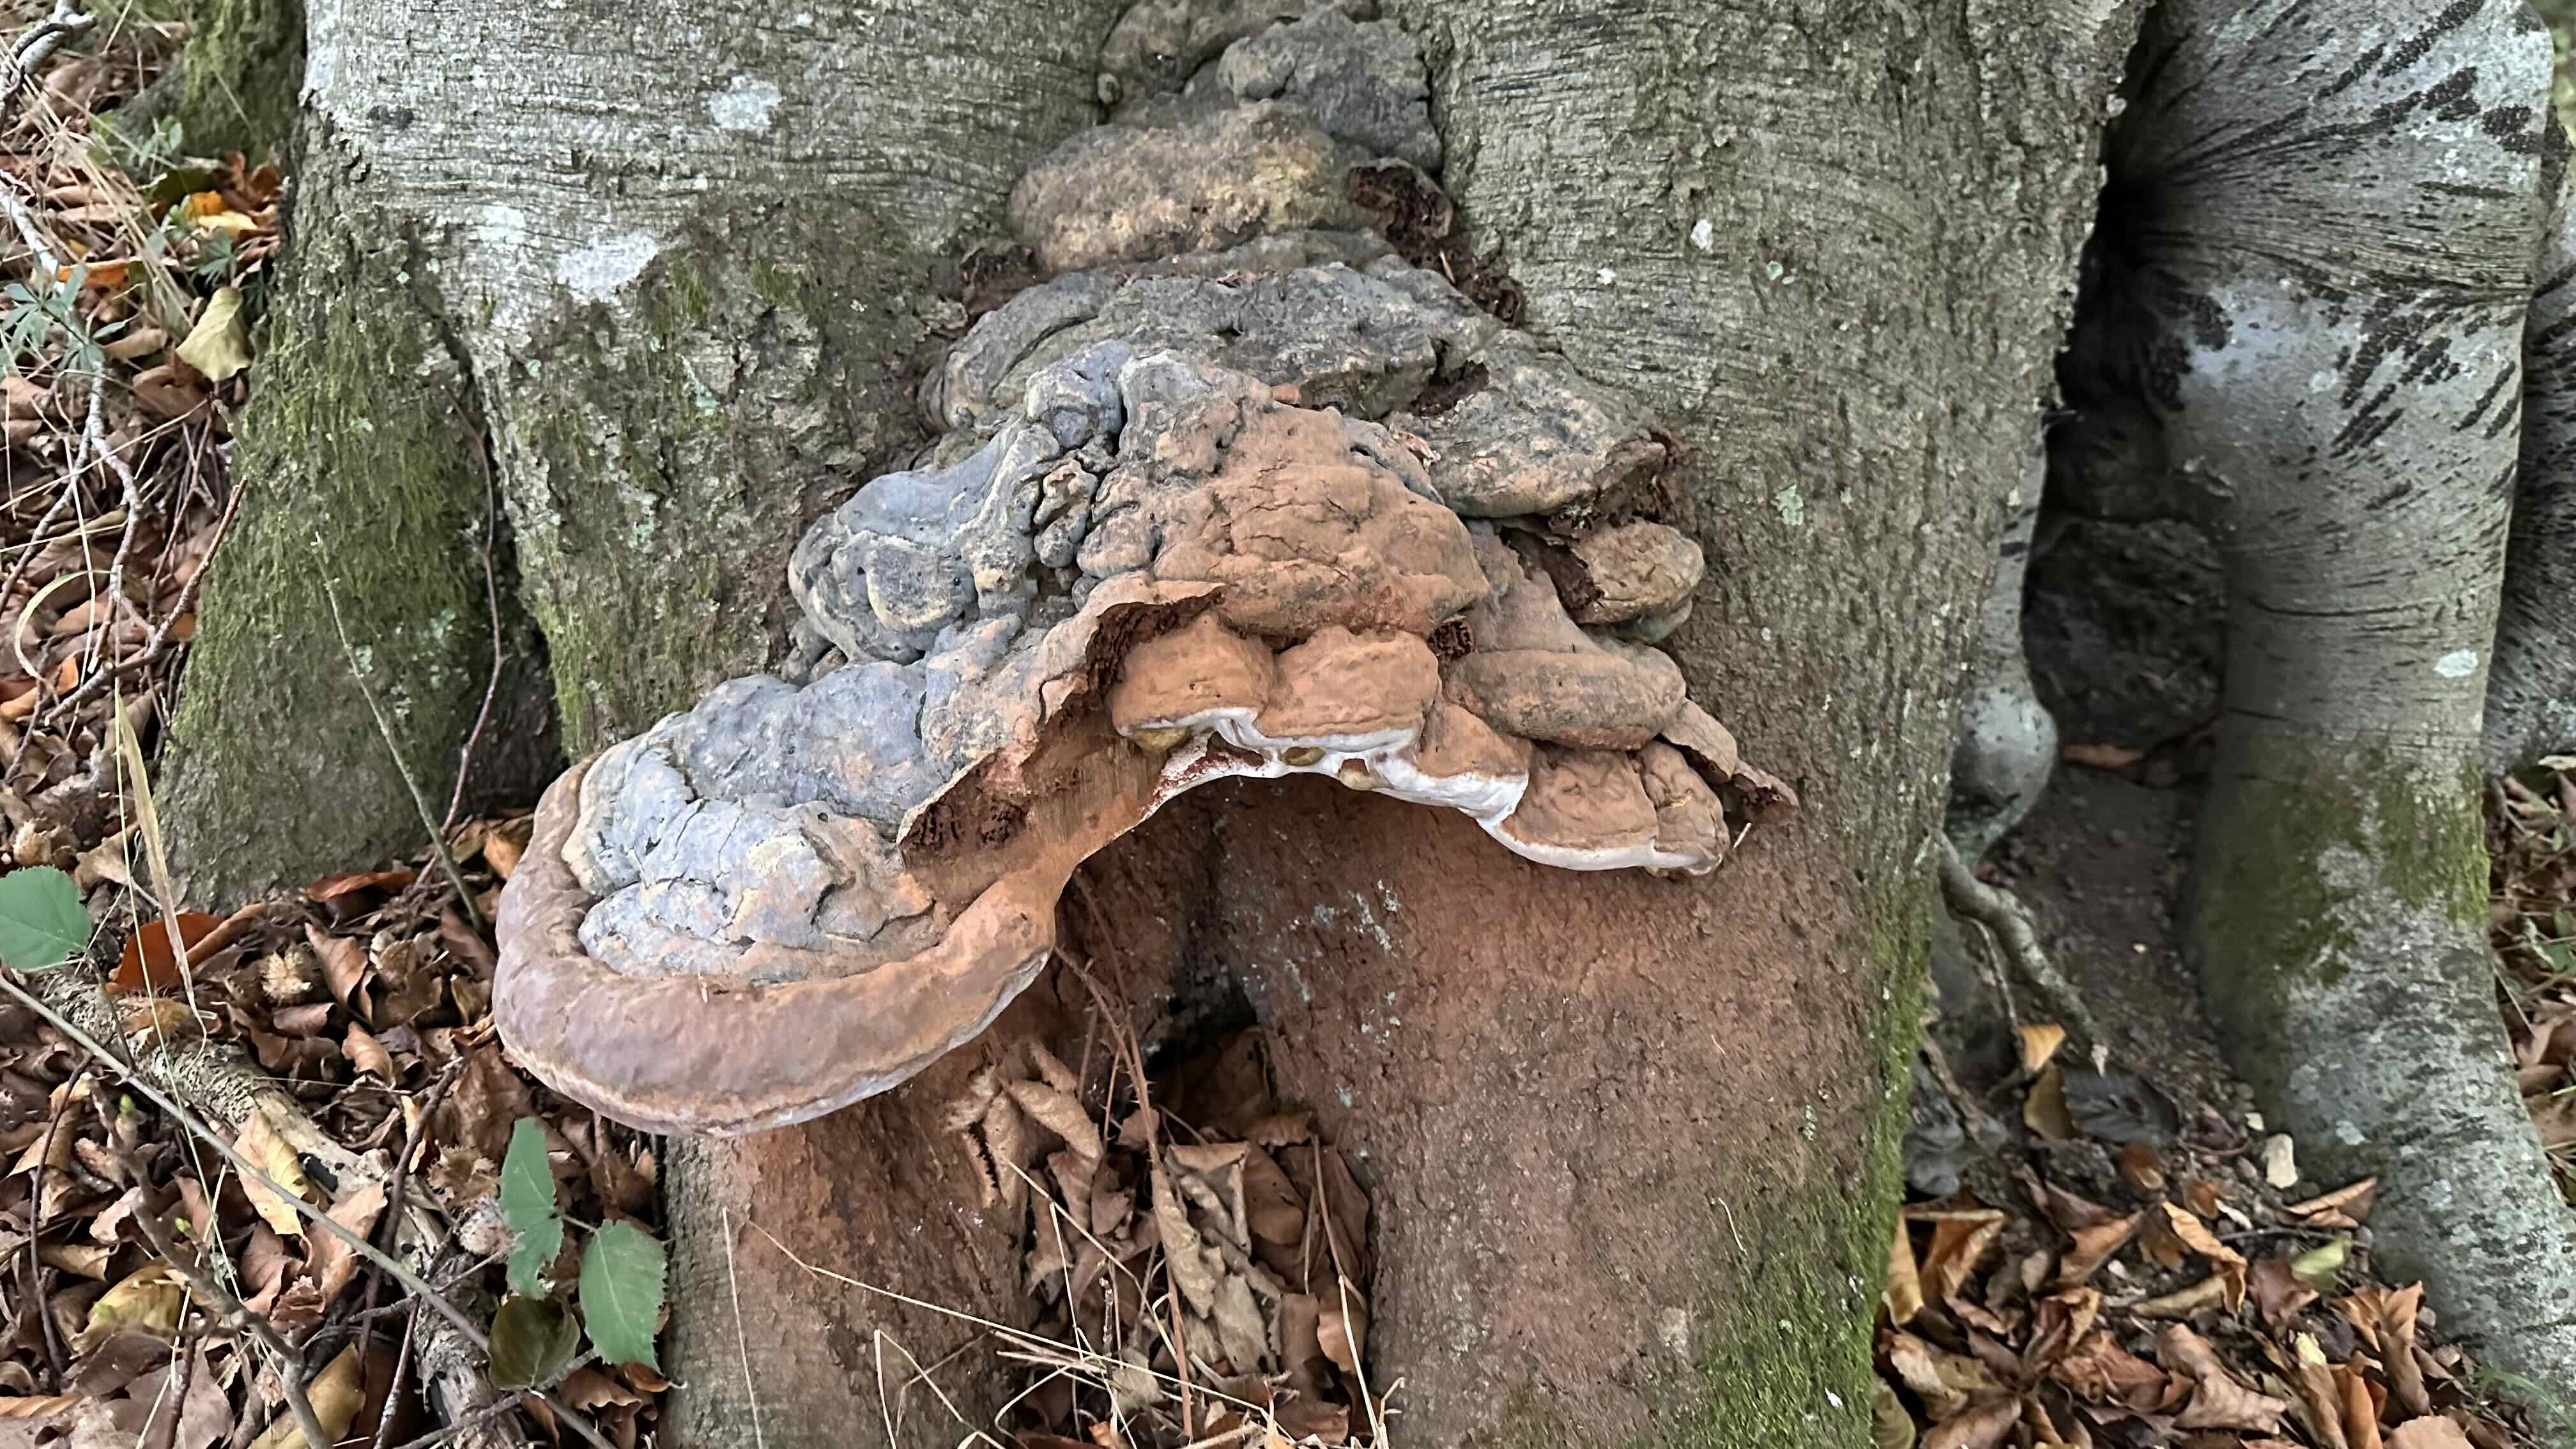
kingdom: Fungi
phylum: Basidiomycota
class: Agaricomycetes
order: Polyporales
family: Polyporaceae
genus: Ganoderma
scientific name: Ganoderma pfeifferi
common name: kobberrød lakporesvamp
